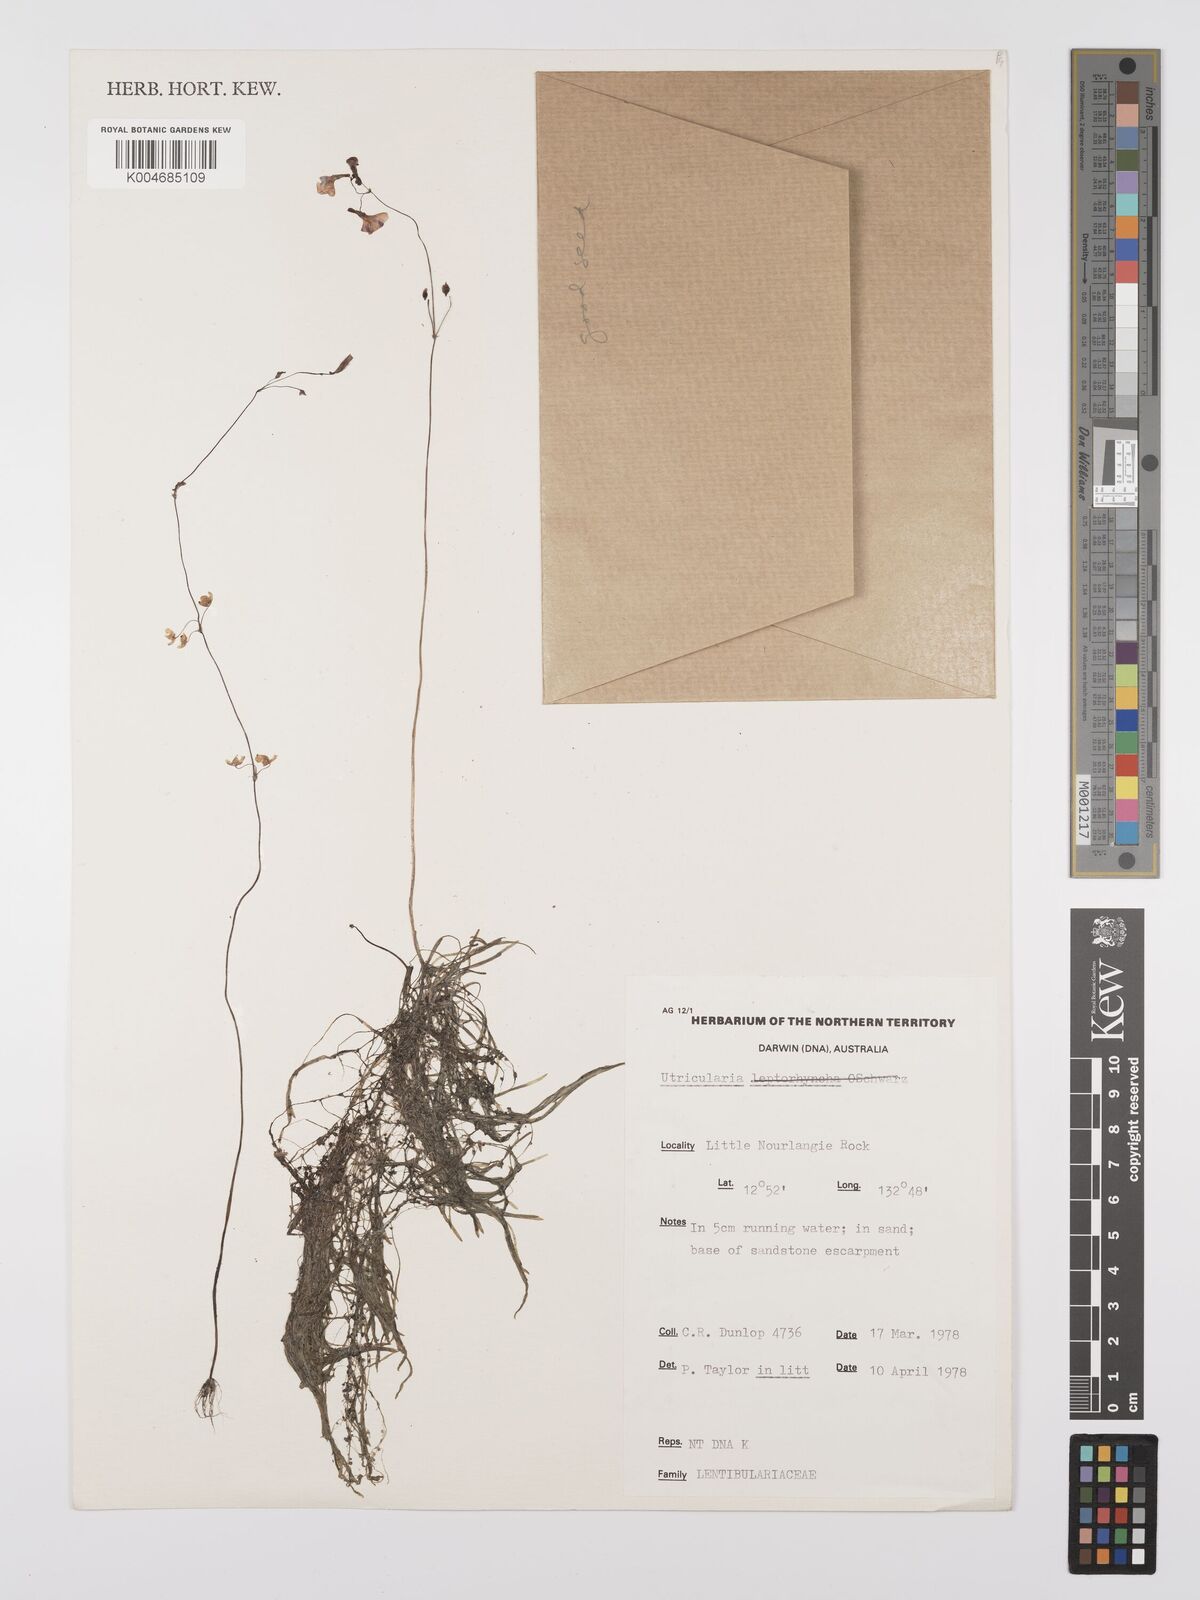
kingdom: Plantae
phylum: Tracheophyta
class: Magnoliopsida
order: Lamiales
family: Lentibulariaceae
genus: Utricularia
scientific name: Utricularia arnhemica
